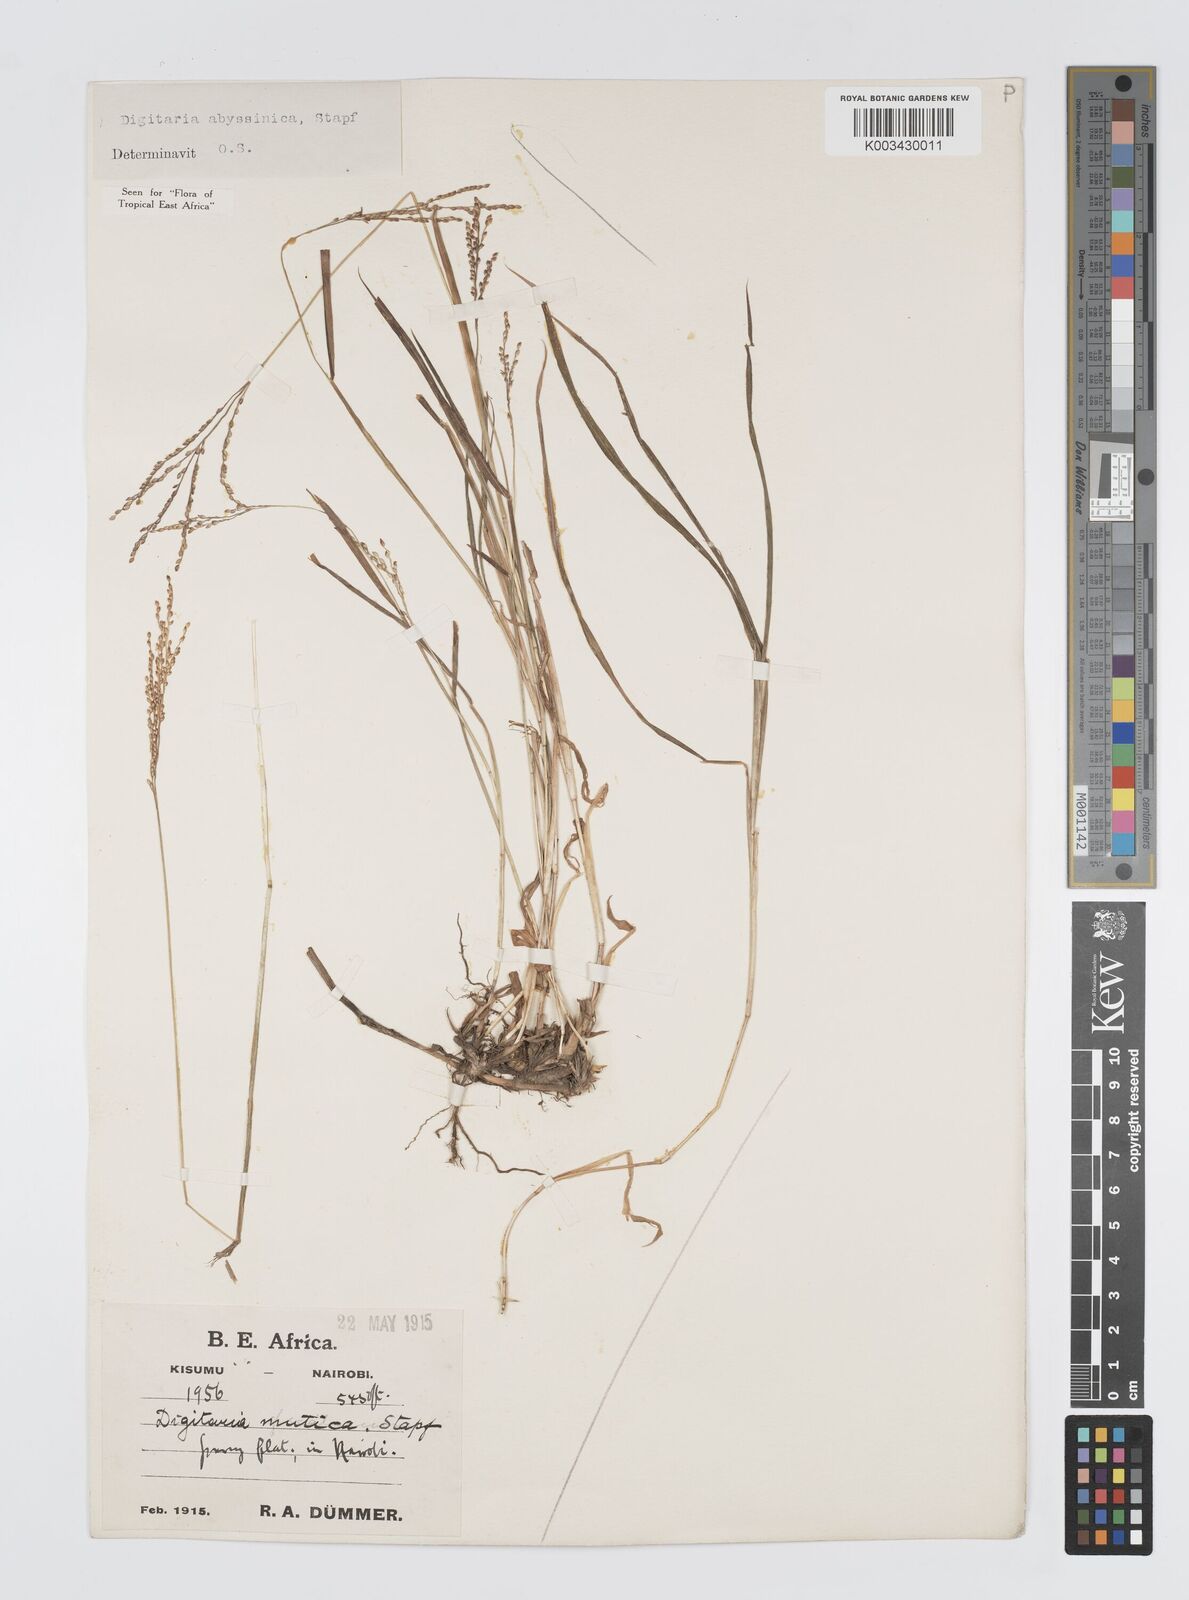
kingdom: Plantae
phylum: Tracheophyta
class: Liliopsida
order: Poales
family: Poaceae
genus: Digitaria
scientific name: Digitaria abyssinica
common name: African couchgrass
